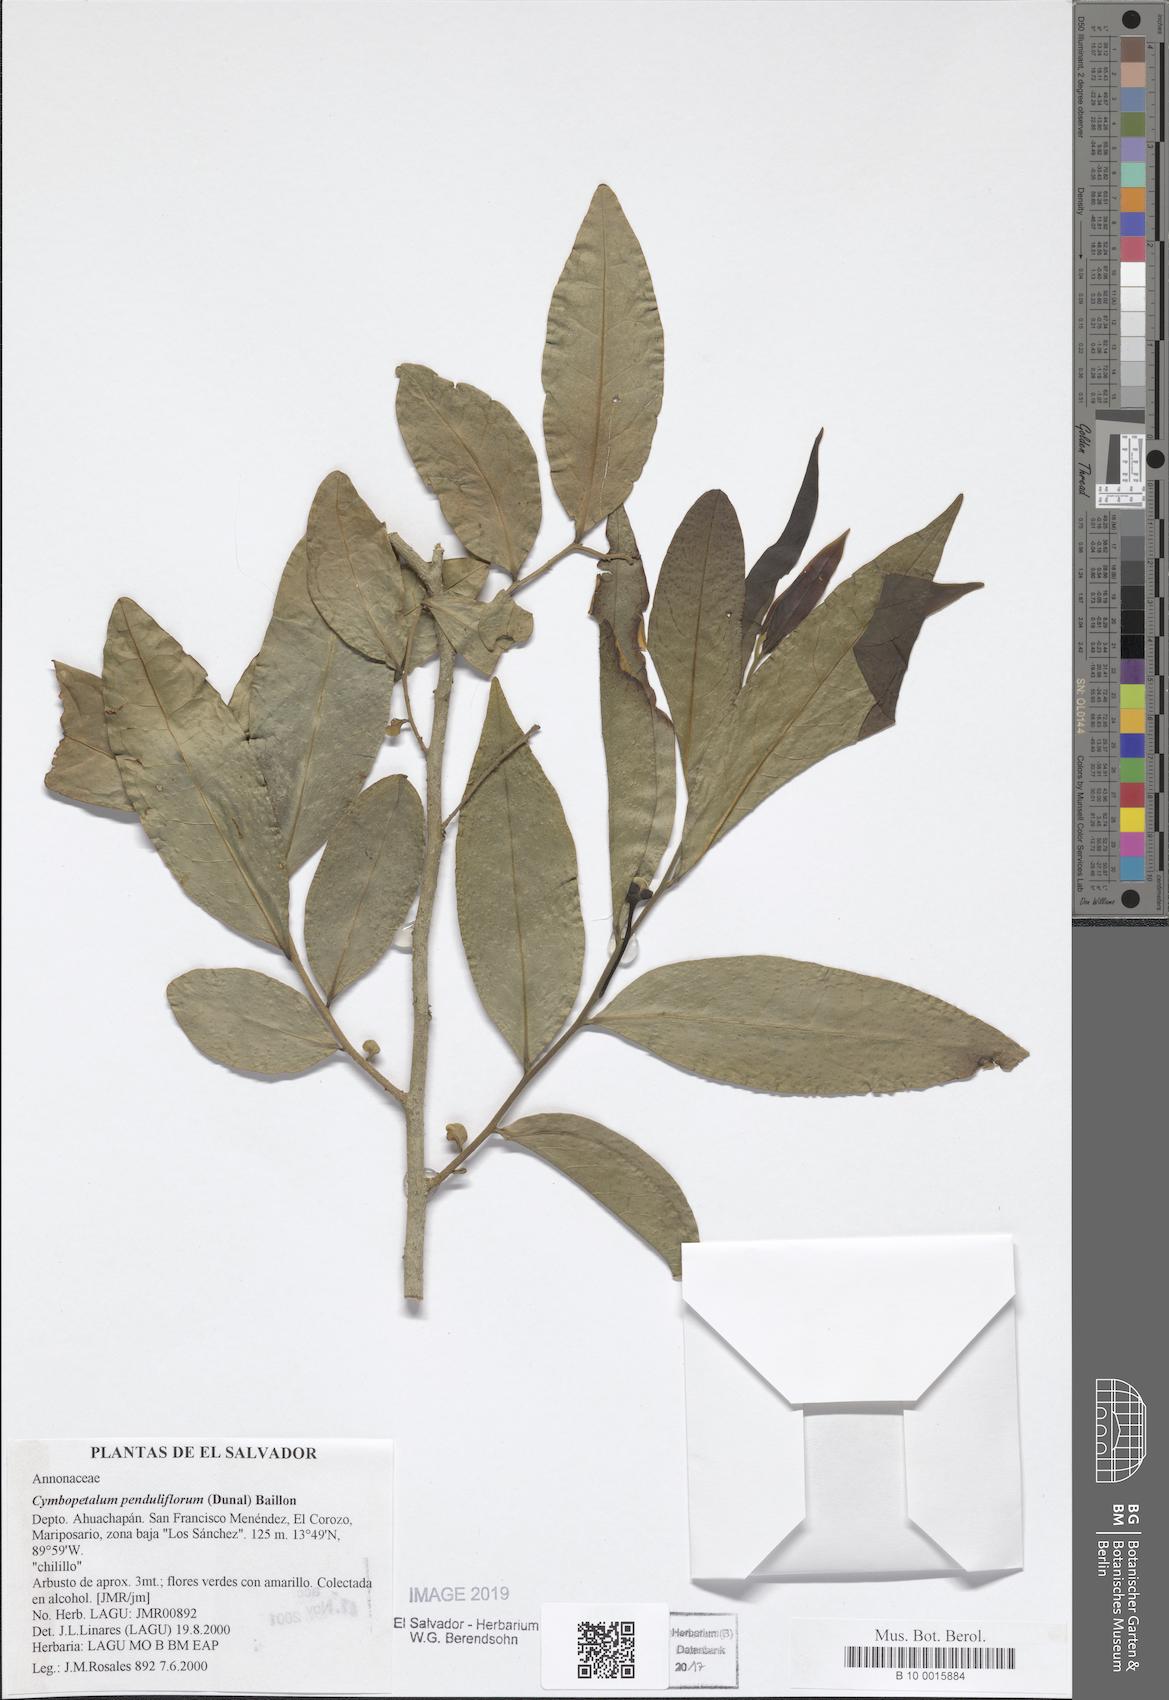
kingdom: Plantae
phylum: Tracheophyta
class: Magnoliopsida
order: Magnoliales
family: Annonaceae
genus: Cymbopetalum
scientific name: Cymbopetalum penduliflorum
